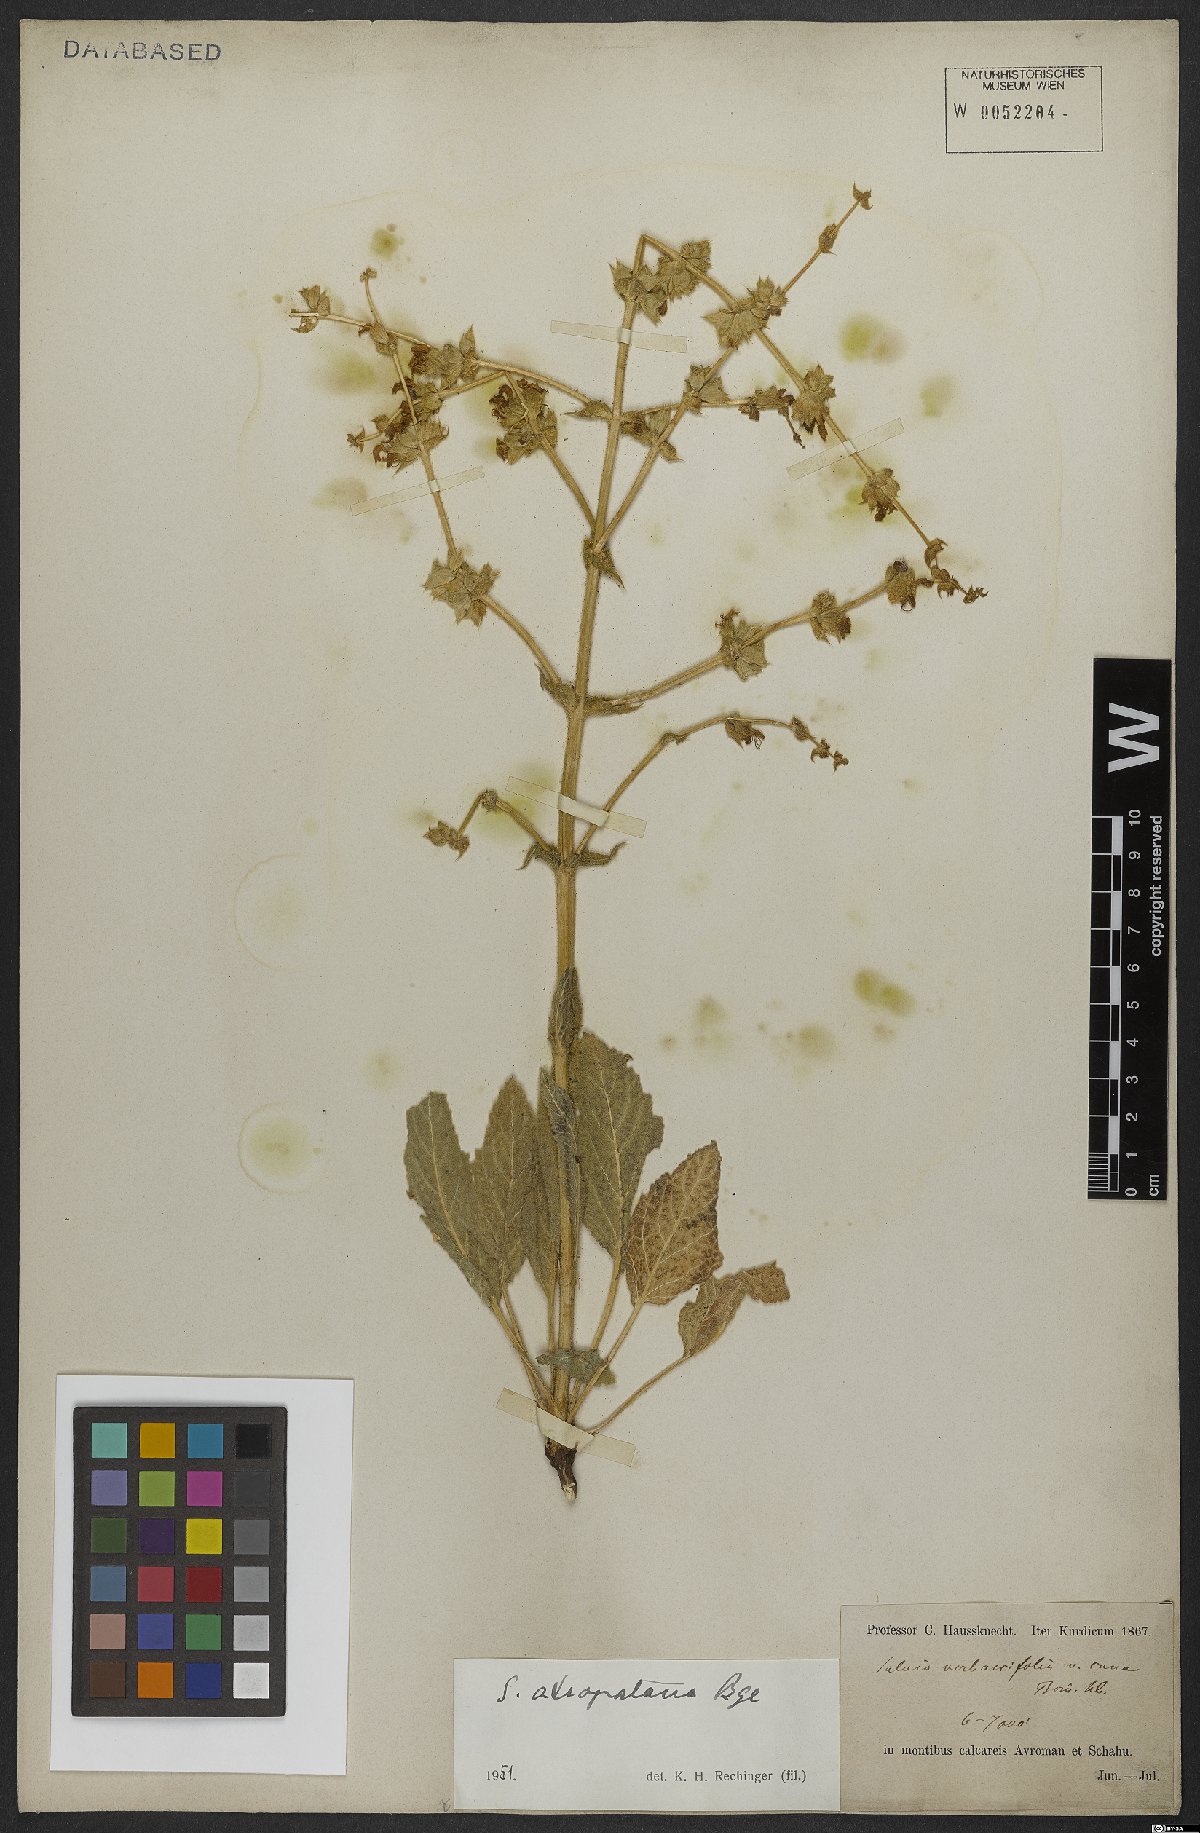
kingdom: Plantae
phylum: Tracheophyta
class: Magnoliopsida
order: Lamiales
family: Lamiaceae
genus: Salvia
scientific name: Salvia atropatana
